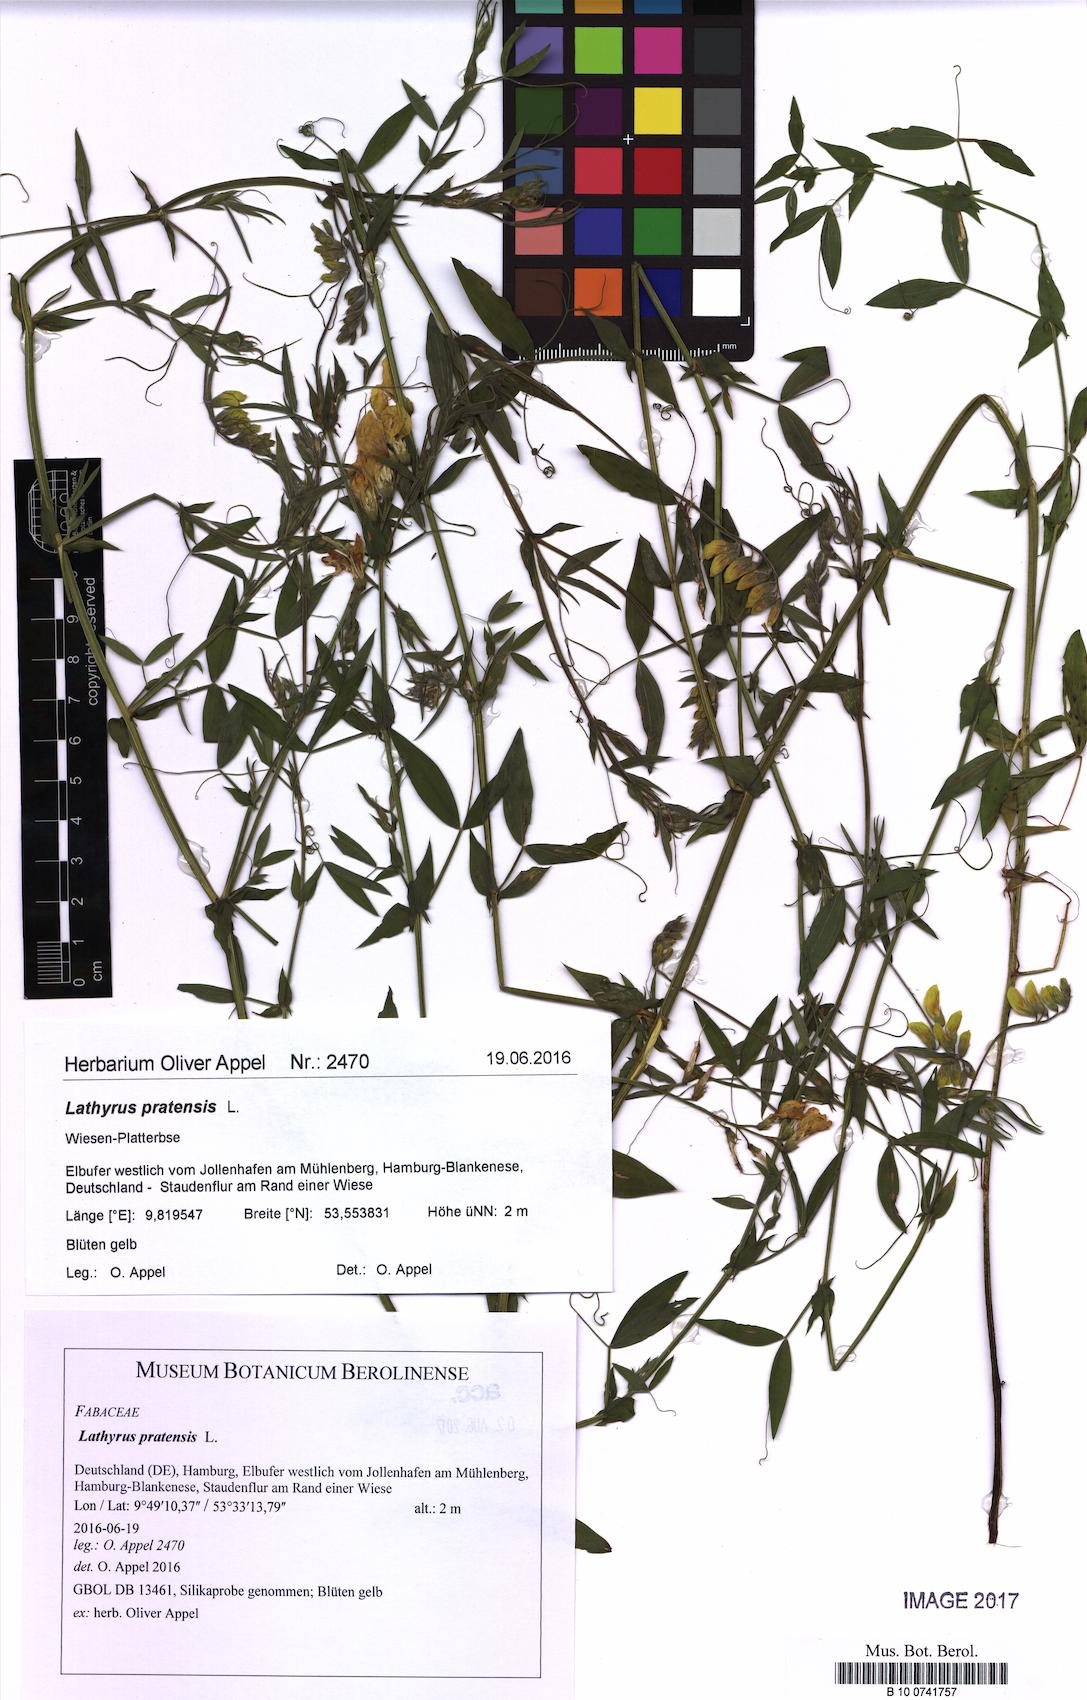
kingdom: Plantae
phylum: Tracheophyta
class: Magnoliopsida
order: Fabales
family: Fabaceae
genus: Lathyrus
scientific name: Lathyrus pratensis
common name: Meadow vetchling
